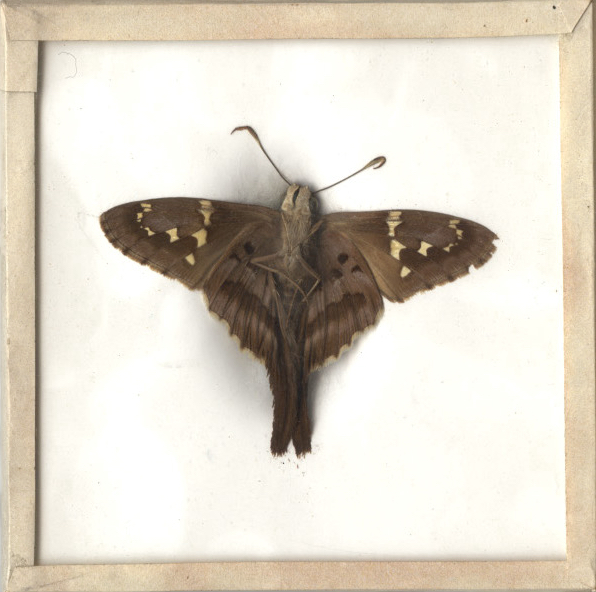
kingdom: Animalia
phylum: Arthropoda
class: Insecta
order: Lepidoptera
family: Hesperiidae
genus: Urbanus
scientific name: Urbanus proteus
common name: Long-tailed Skipper
